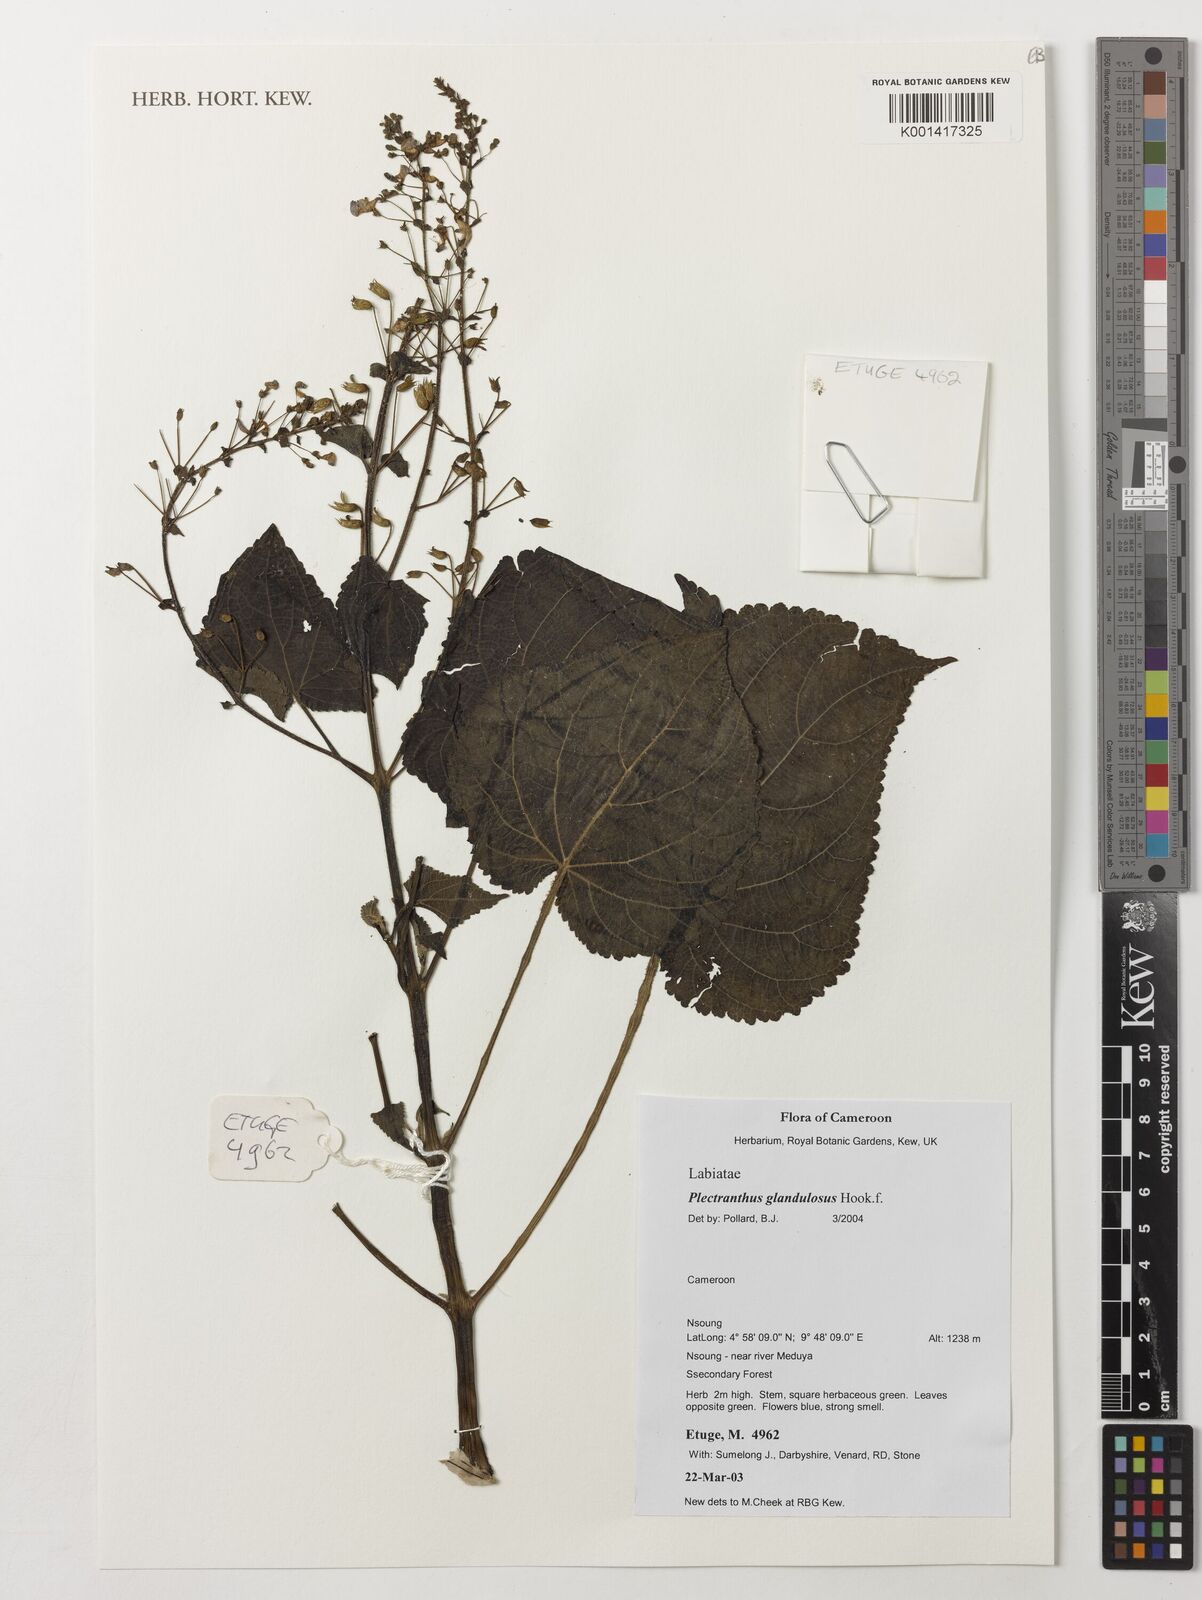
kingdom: Plantae
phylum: Tracheophyta
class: Magnoliopsida
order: Lamiales
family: Lamiaceae
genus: Equilabium
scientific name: Equilabium glandulosum
